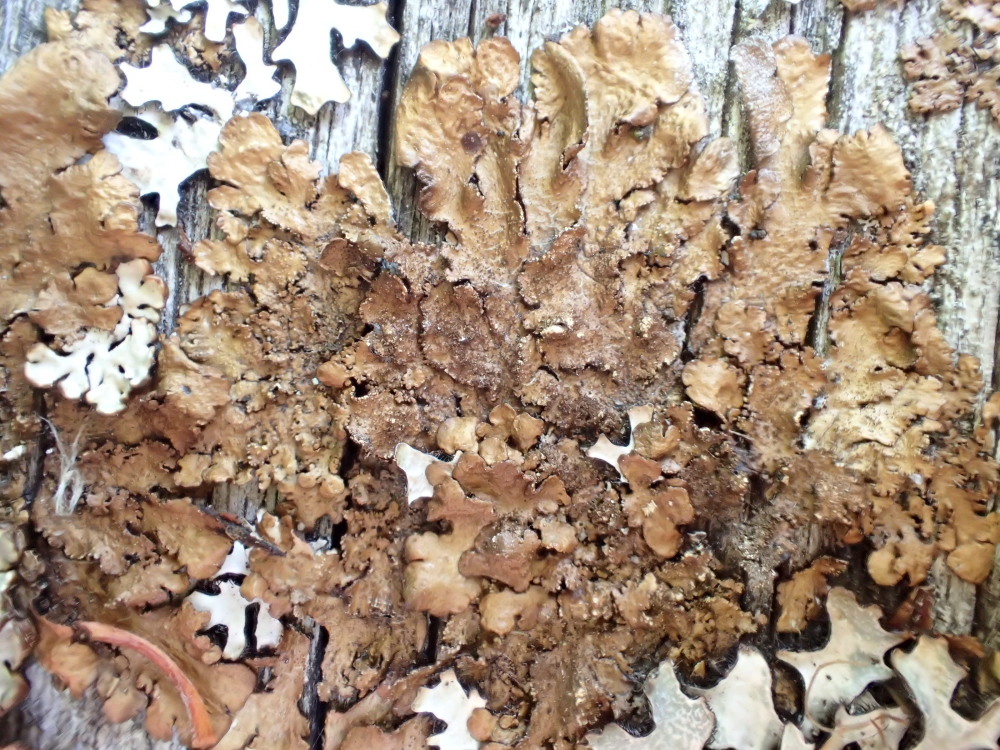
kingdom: Fungi
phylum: Ascomycota
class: Lecanoromycetes
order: Lecanorales
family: Parmeliaceae
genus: Melanelixia
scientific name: Melanelixia subaurifera
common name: guldpudret skållav
